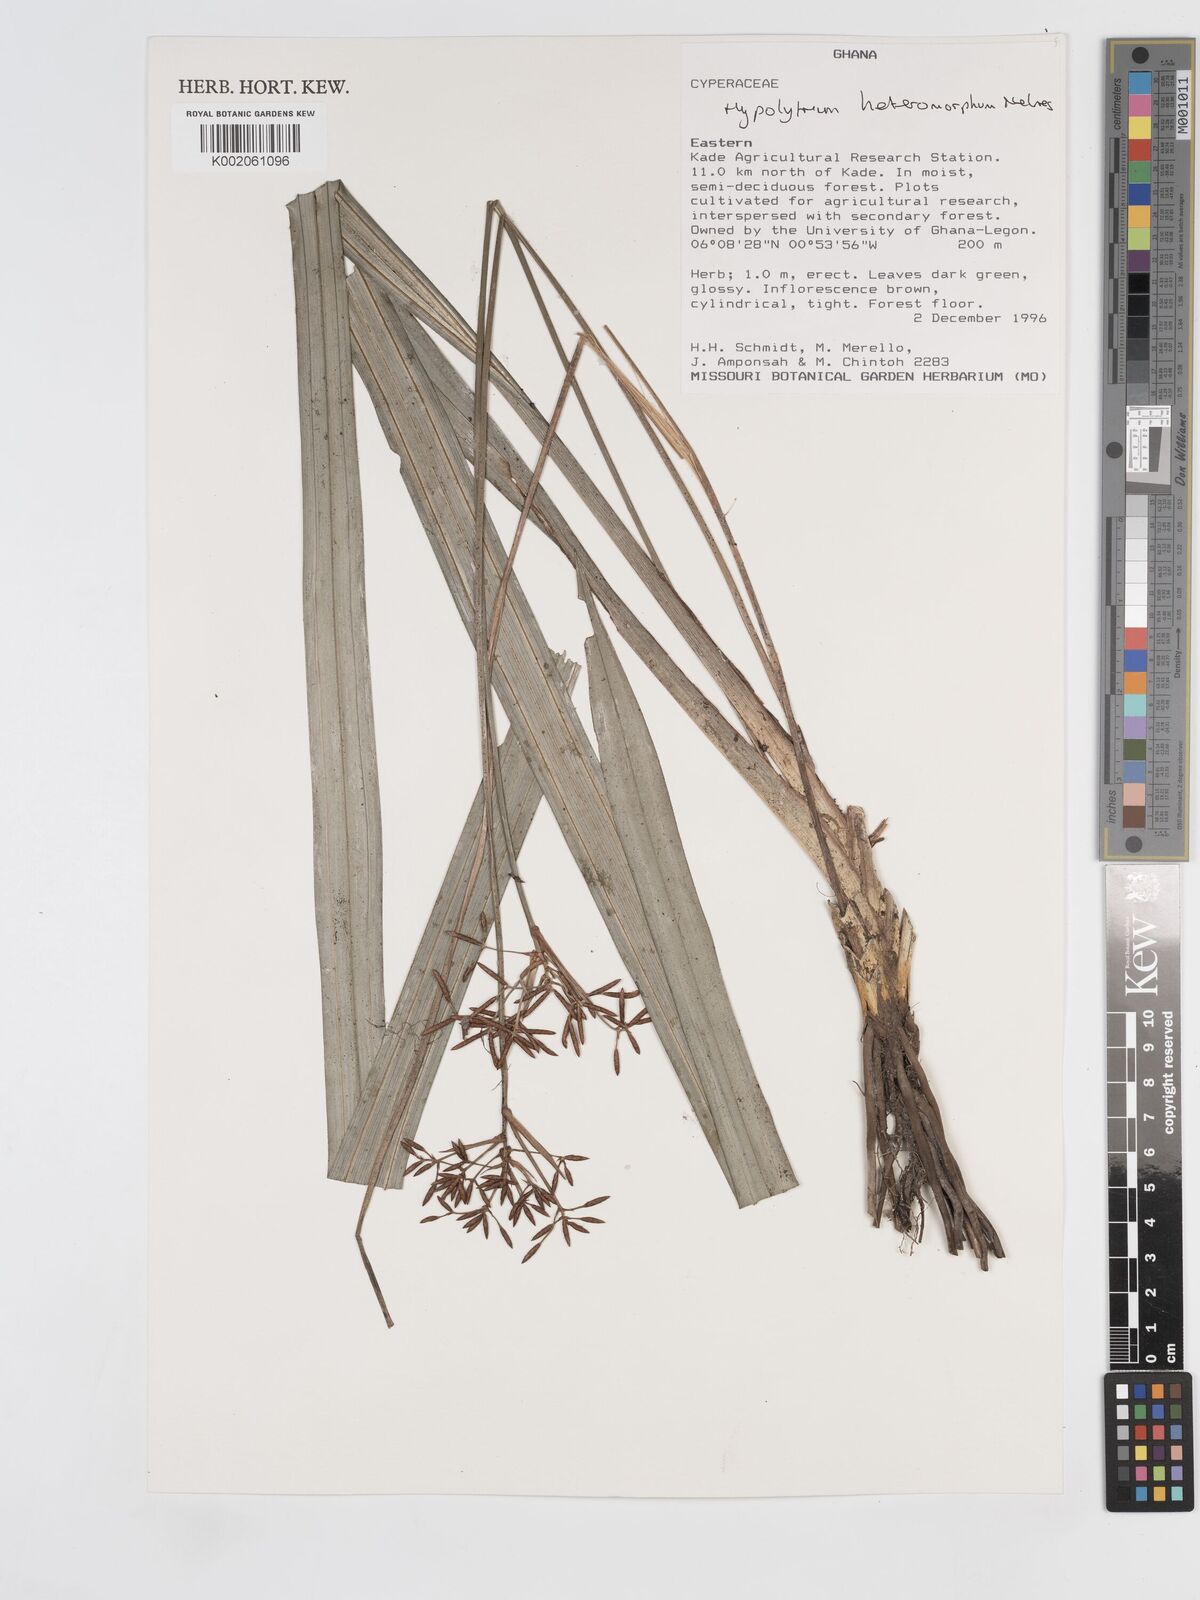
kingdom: Plantae
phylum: Tracheophyta
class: Liliopsida
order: Poales
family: Cyperaceae
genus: Hypolytrum
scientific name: Hypolytrum heteromorphum
